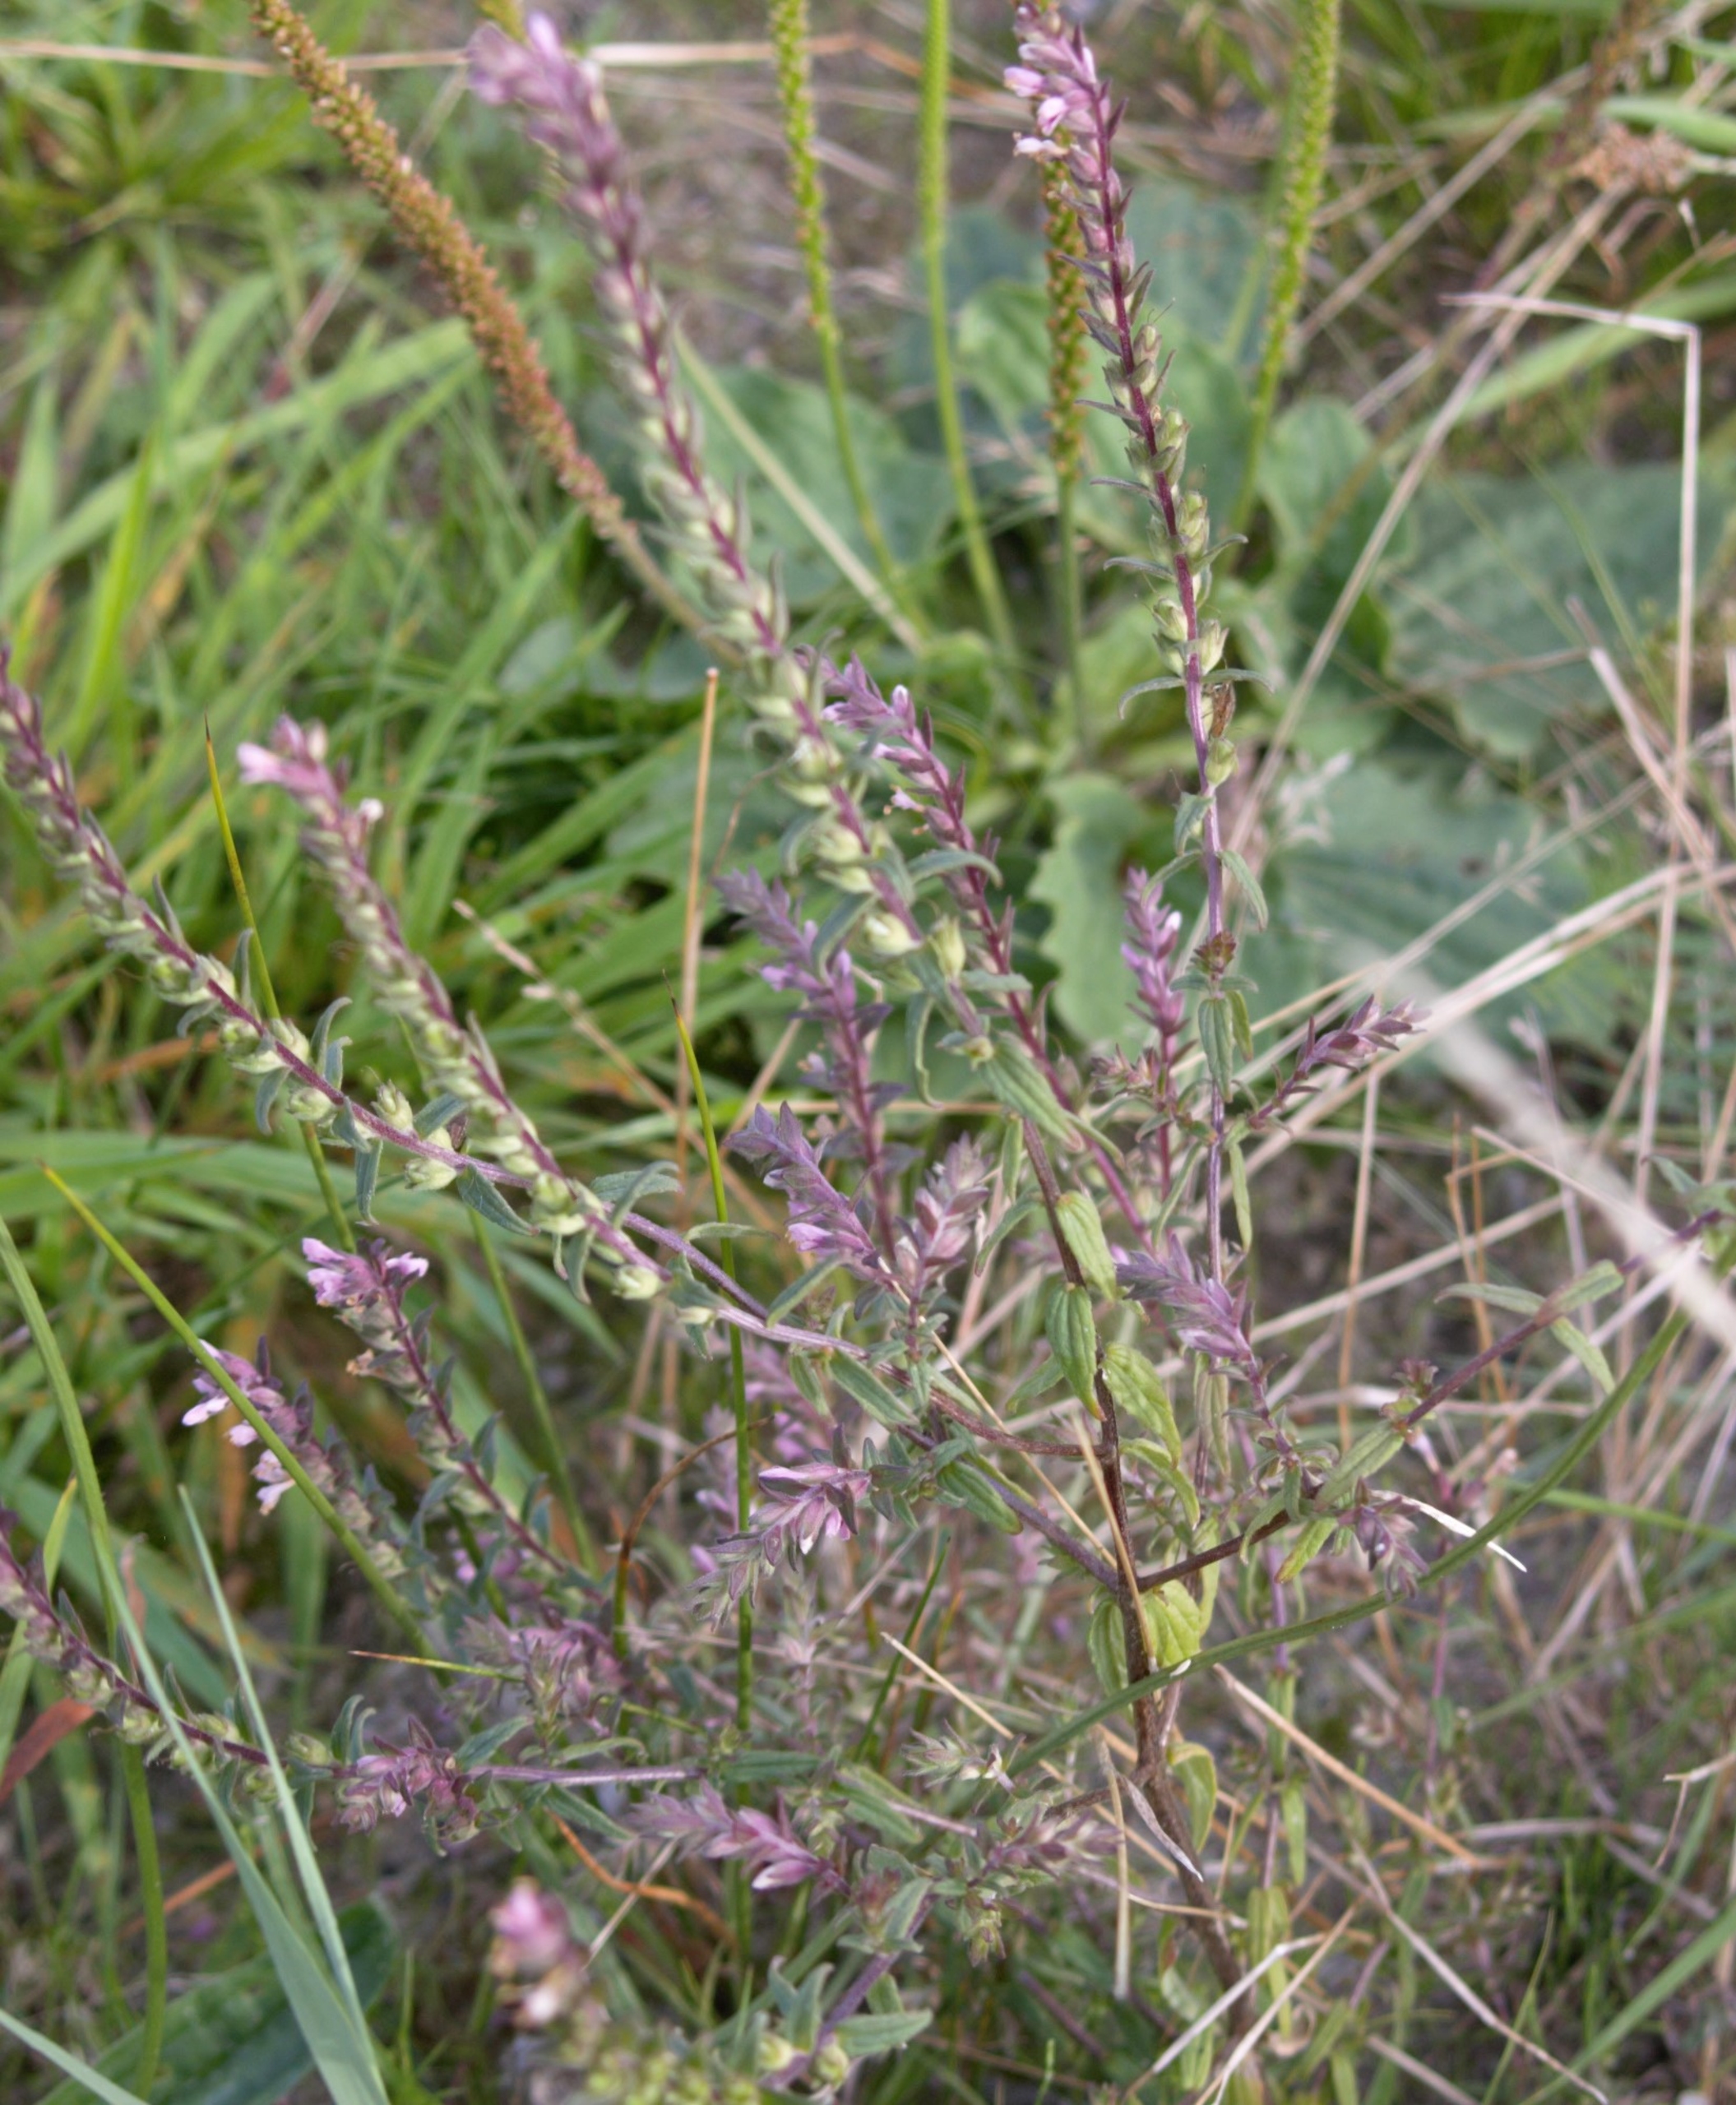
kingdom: Plantae
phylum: Tracheophyta
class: Magnoliopsida
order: Lamiales
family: Orobanchaceae
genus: Odontites
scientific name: Odontites vulgaris
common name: Høst-rødtop
